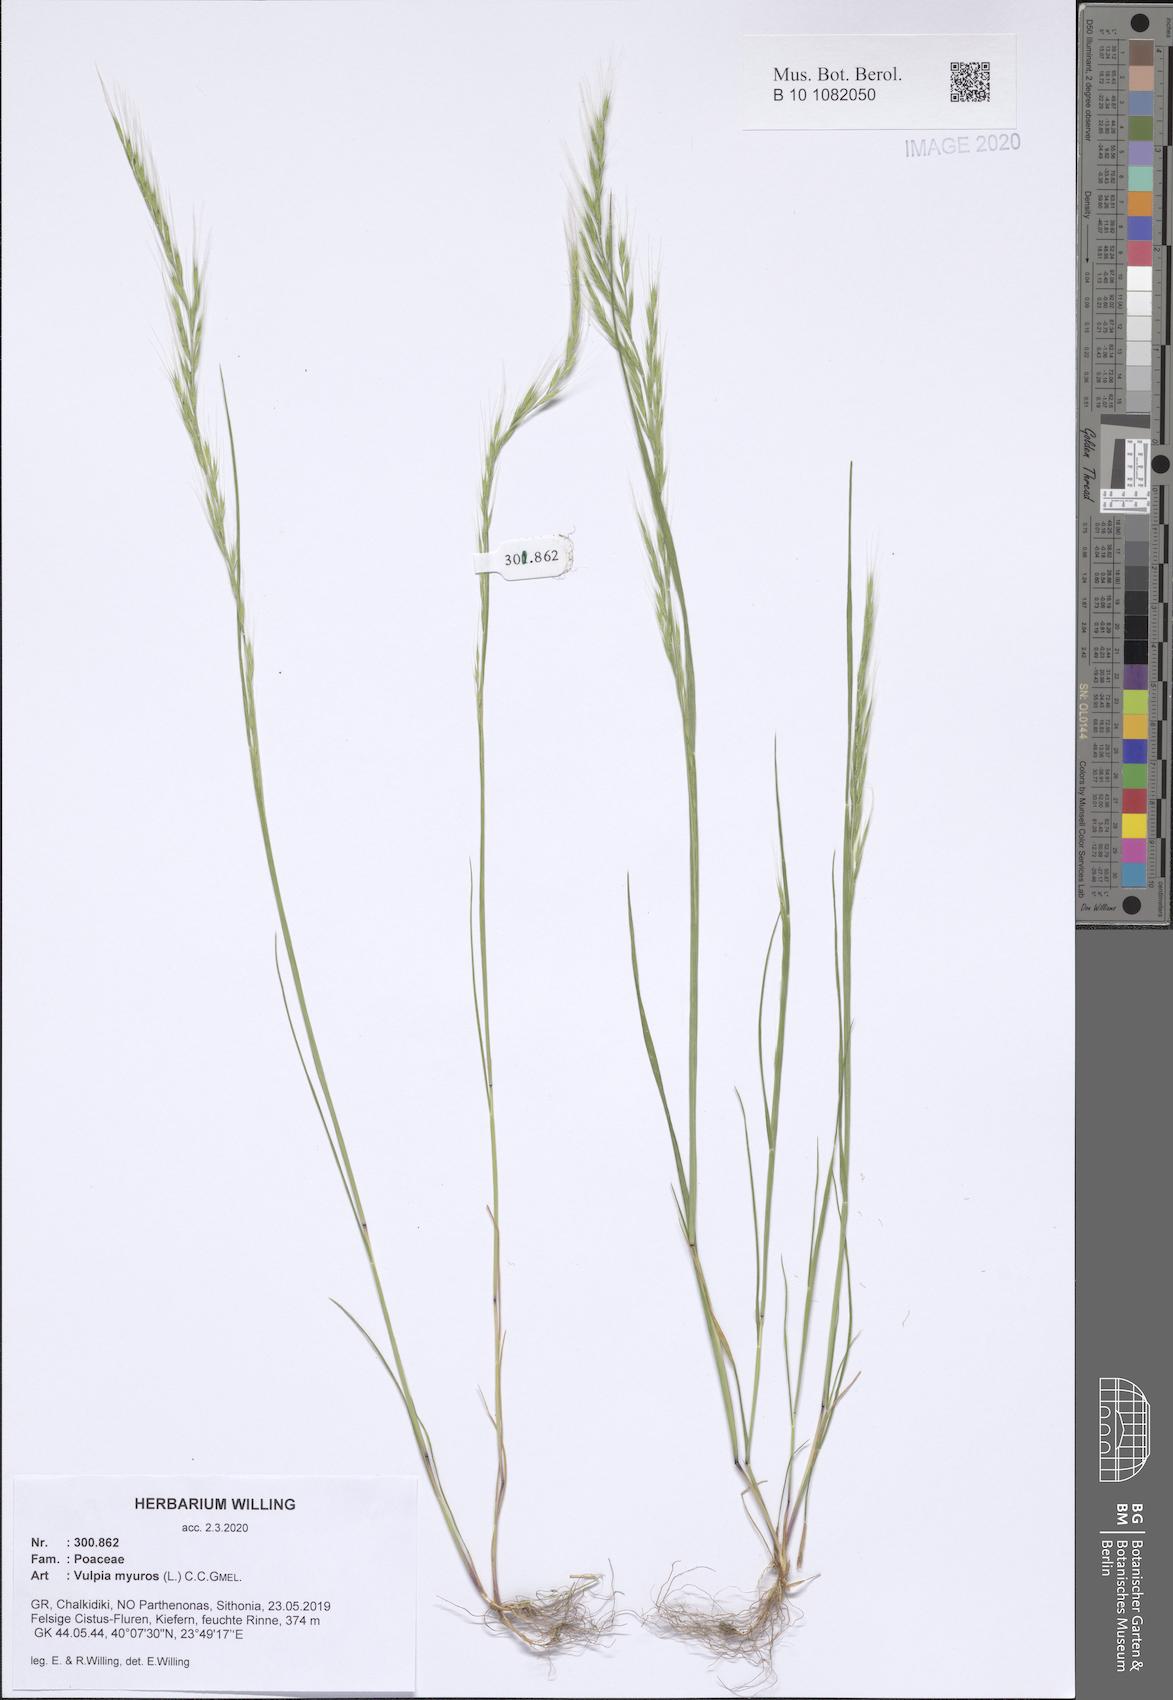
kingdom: Plantae
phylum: Tracheophyta
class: Liliopsida
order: Poales
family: Poaceae
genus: Festuca
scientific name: Festuca myuros
